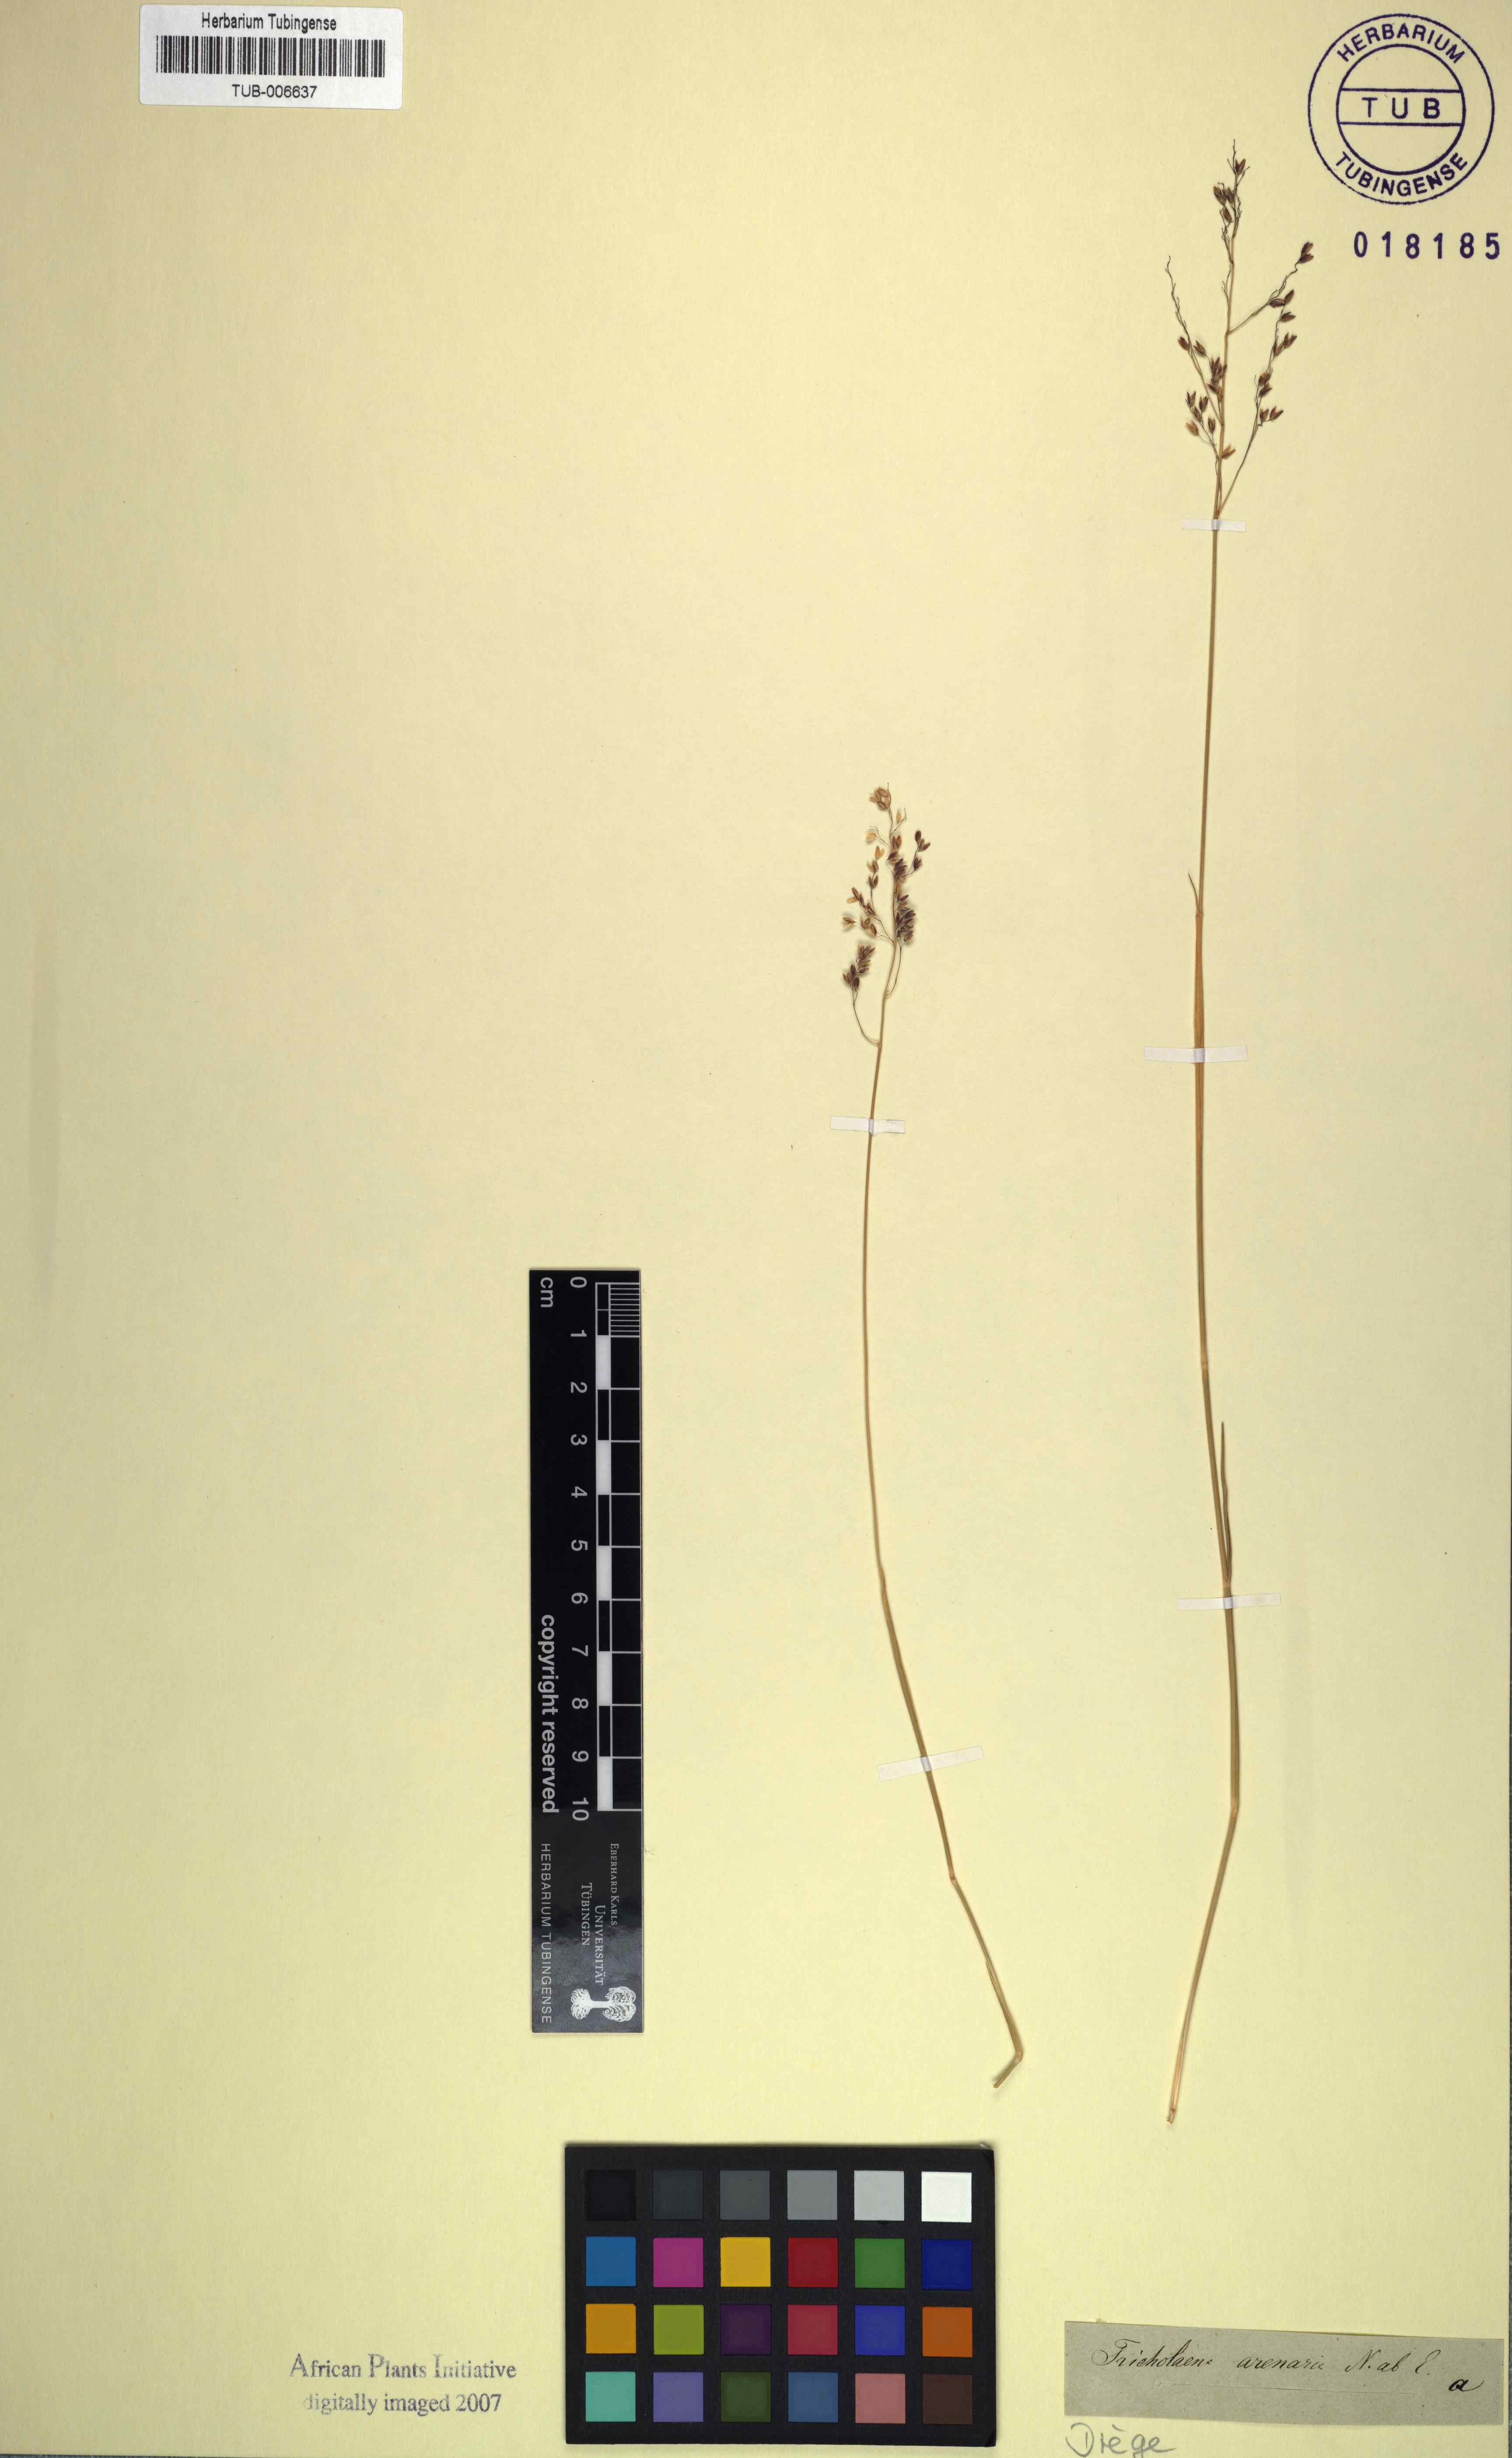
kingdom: Plantae
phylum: Tracheophyta
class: Liliopsida
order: Poales
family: Poaceae
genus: Tricholaena
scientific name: Tricholaena capensis
